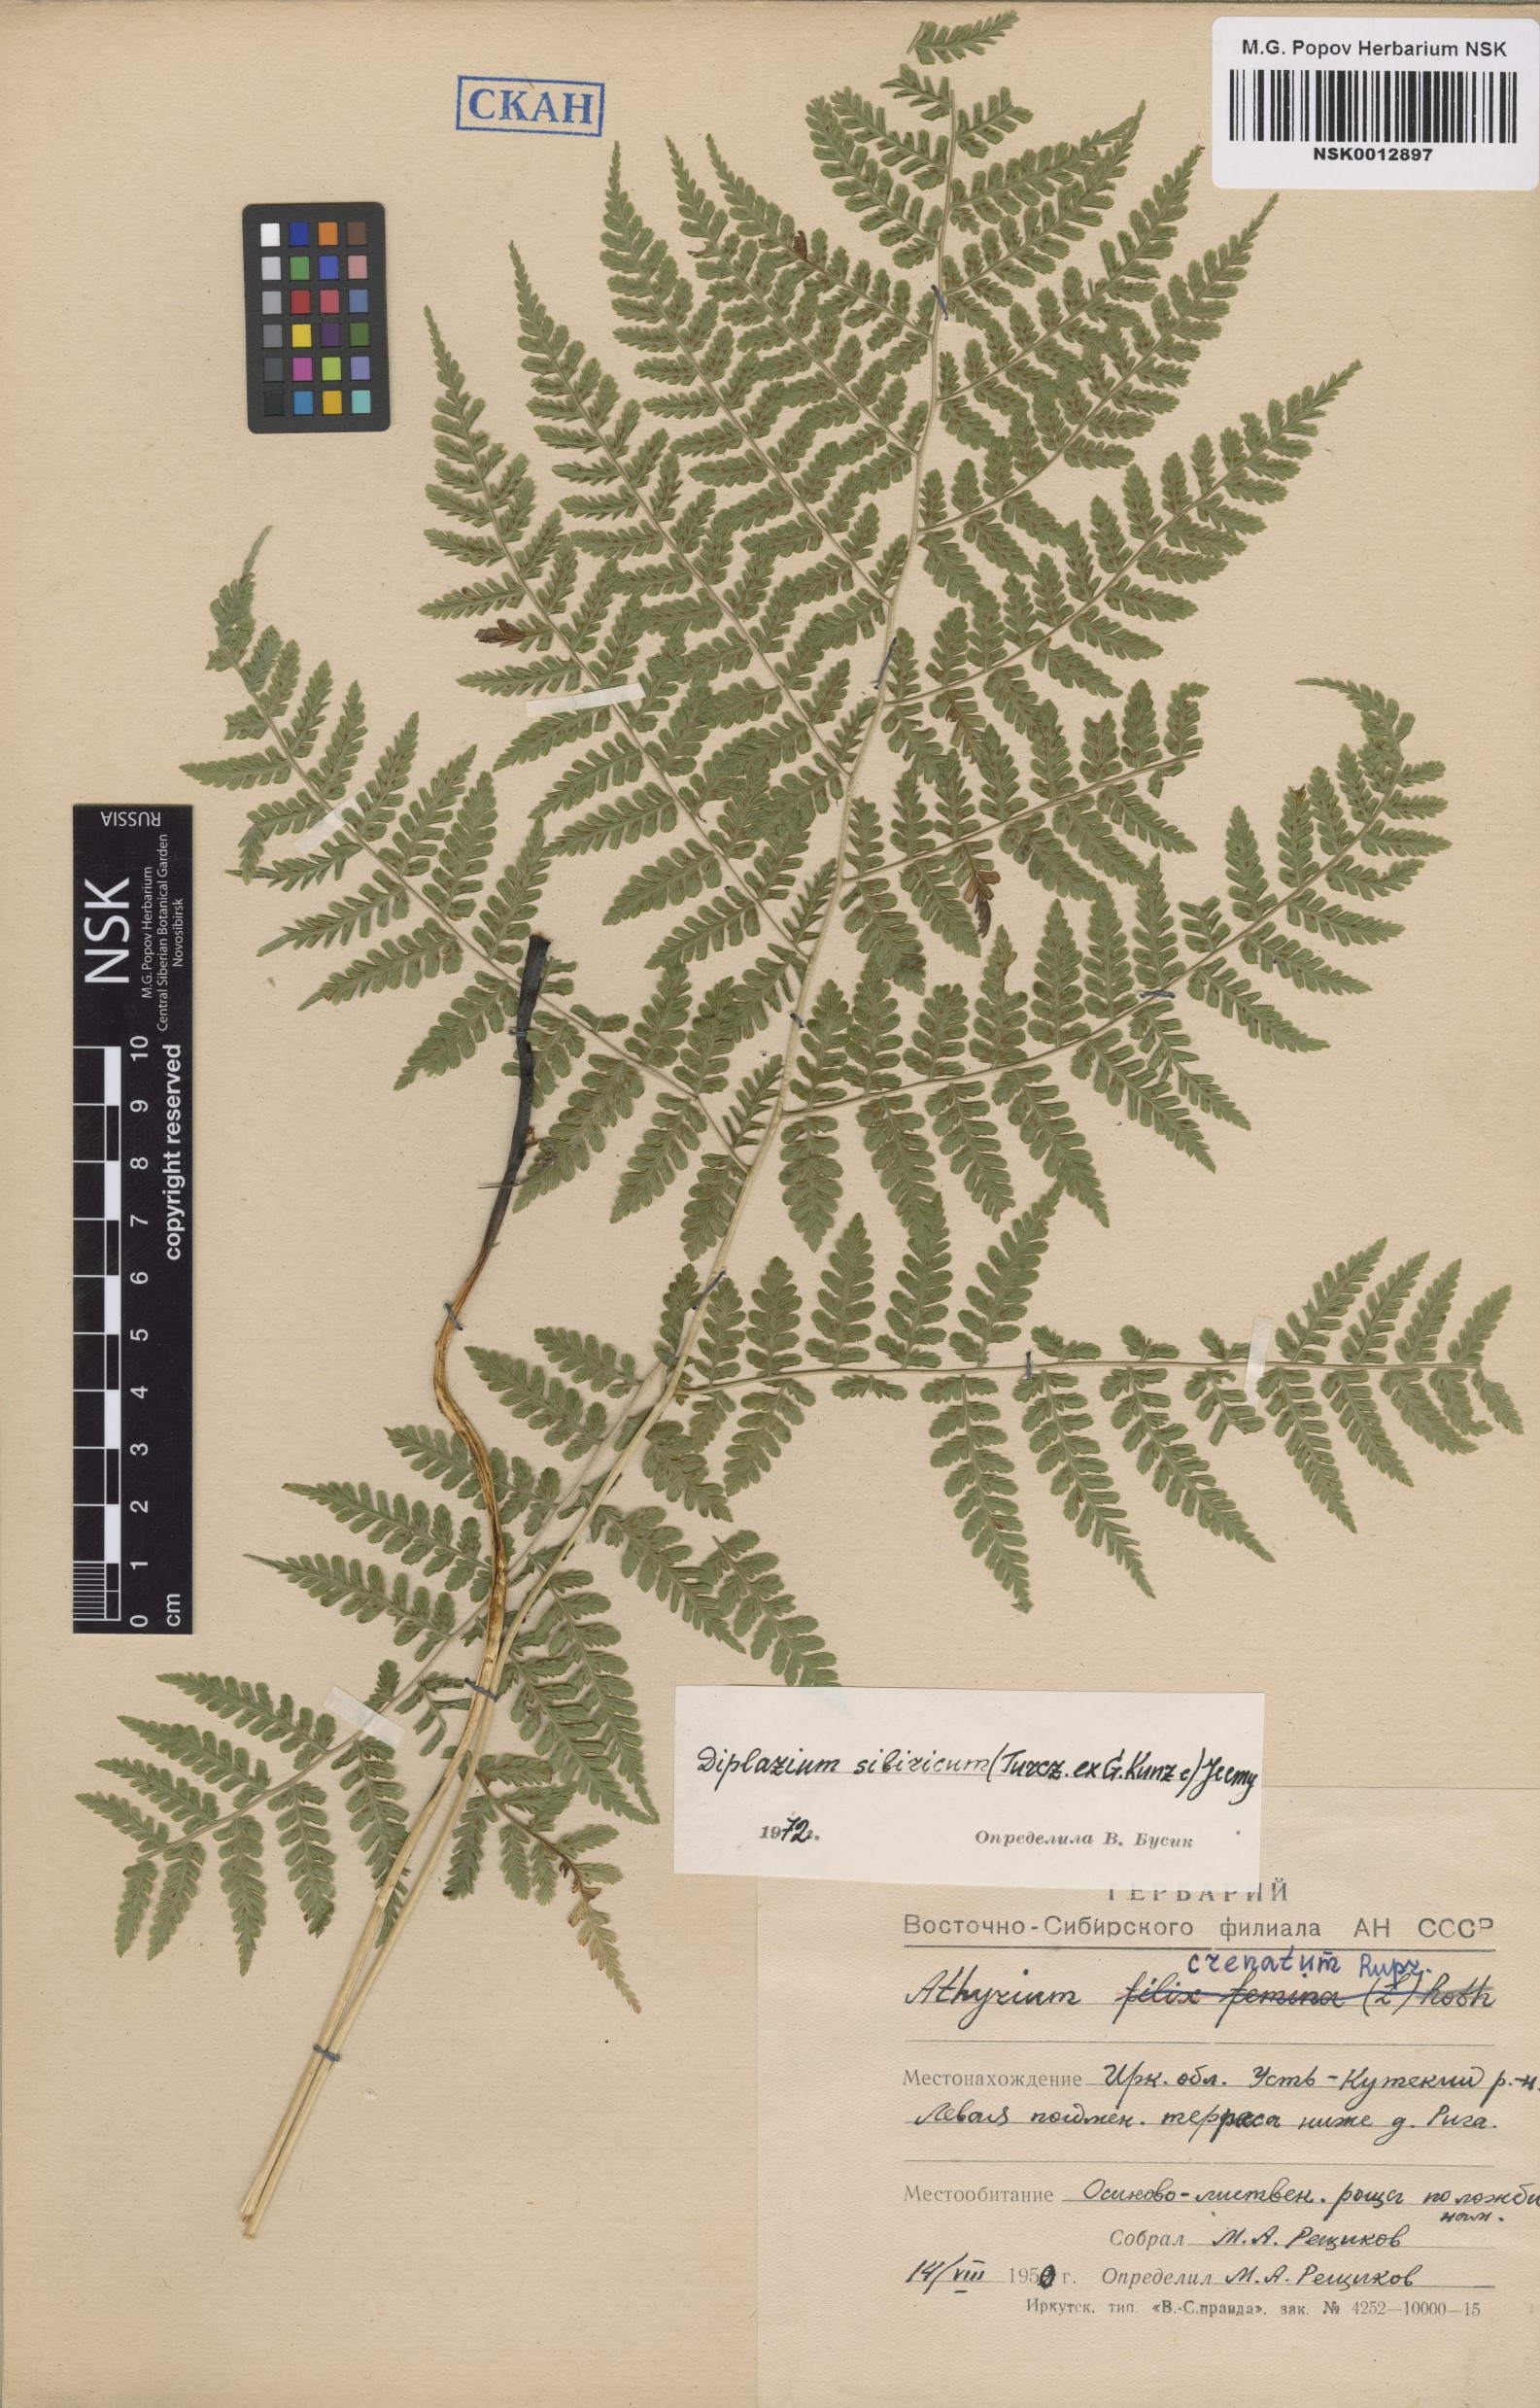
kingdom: Plantae
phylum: Tracheophyta
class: Polypodiopsida
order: Polypodiales
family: Athyriaceae
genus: Diplazium
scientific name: Diplazium sibiricum
